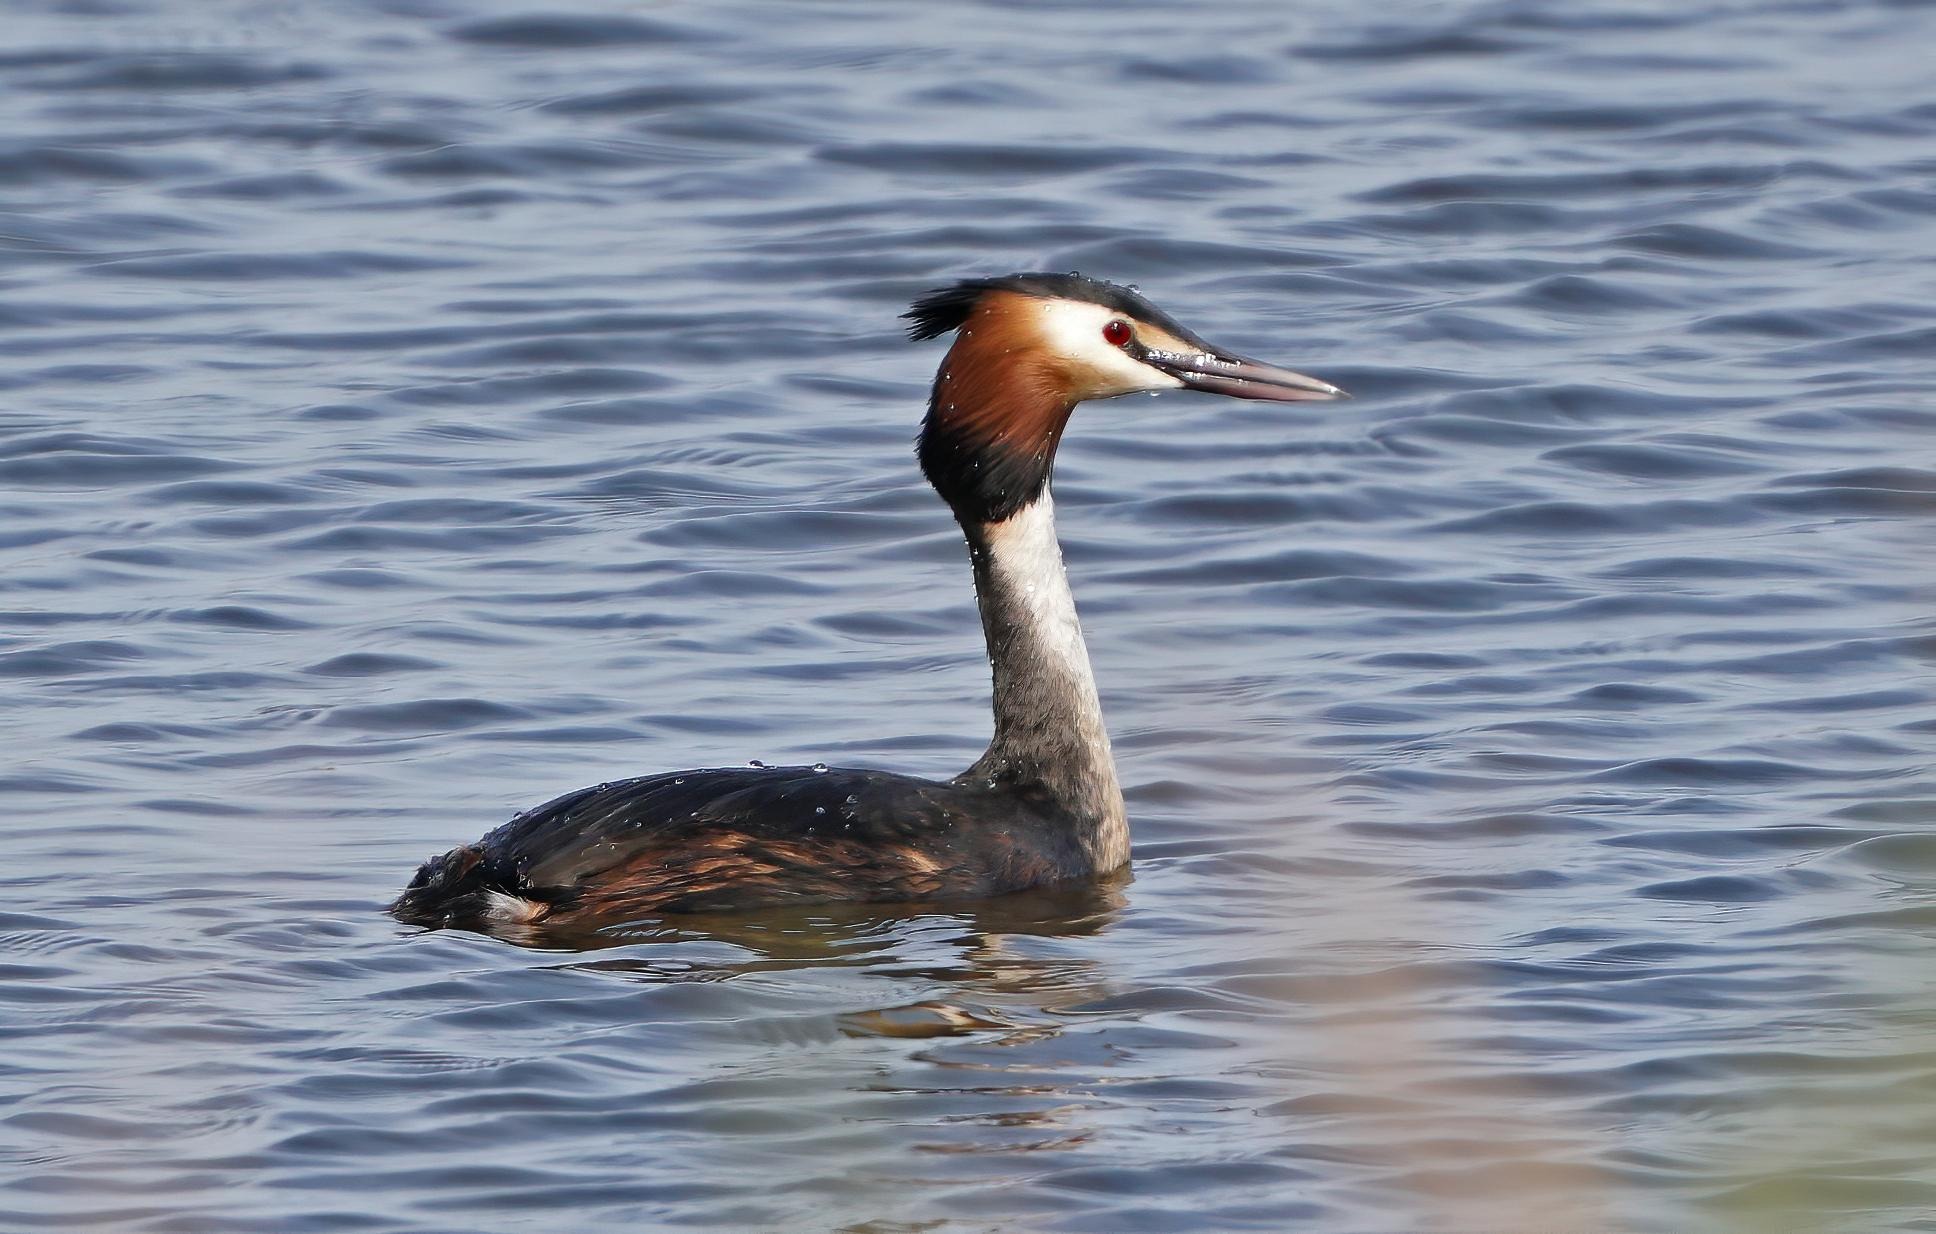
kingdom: Animalia
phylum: Chordata
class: Aves
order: Podicipediformes
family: Podicipedidae
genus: Podiceps
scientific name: Podiceps cristatus
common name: Toppet lappedykker
